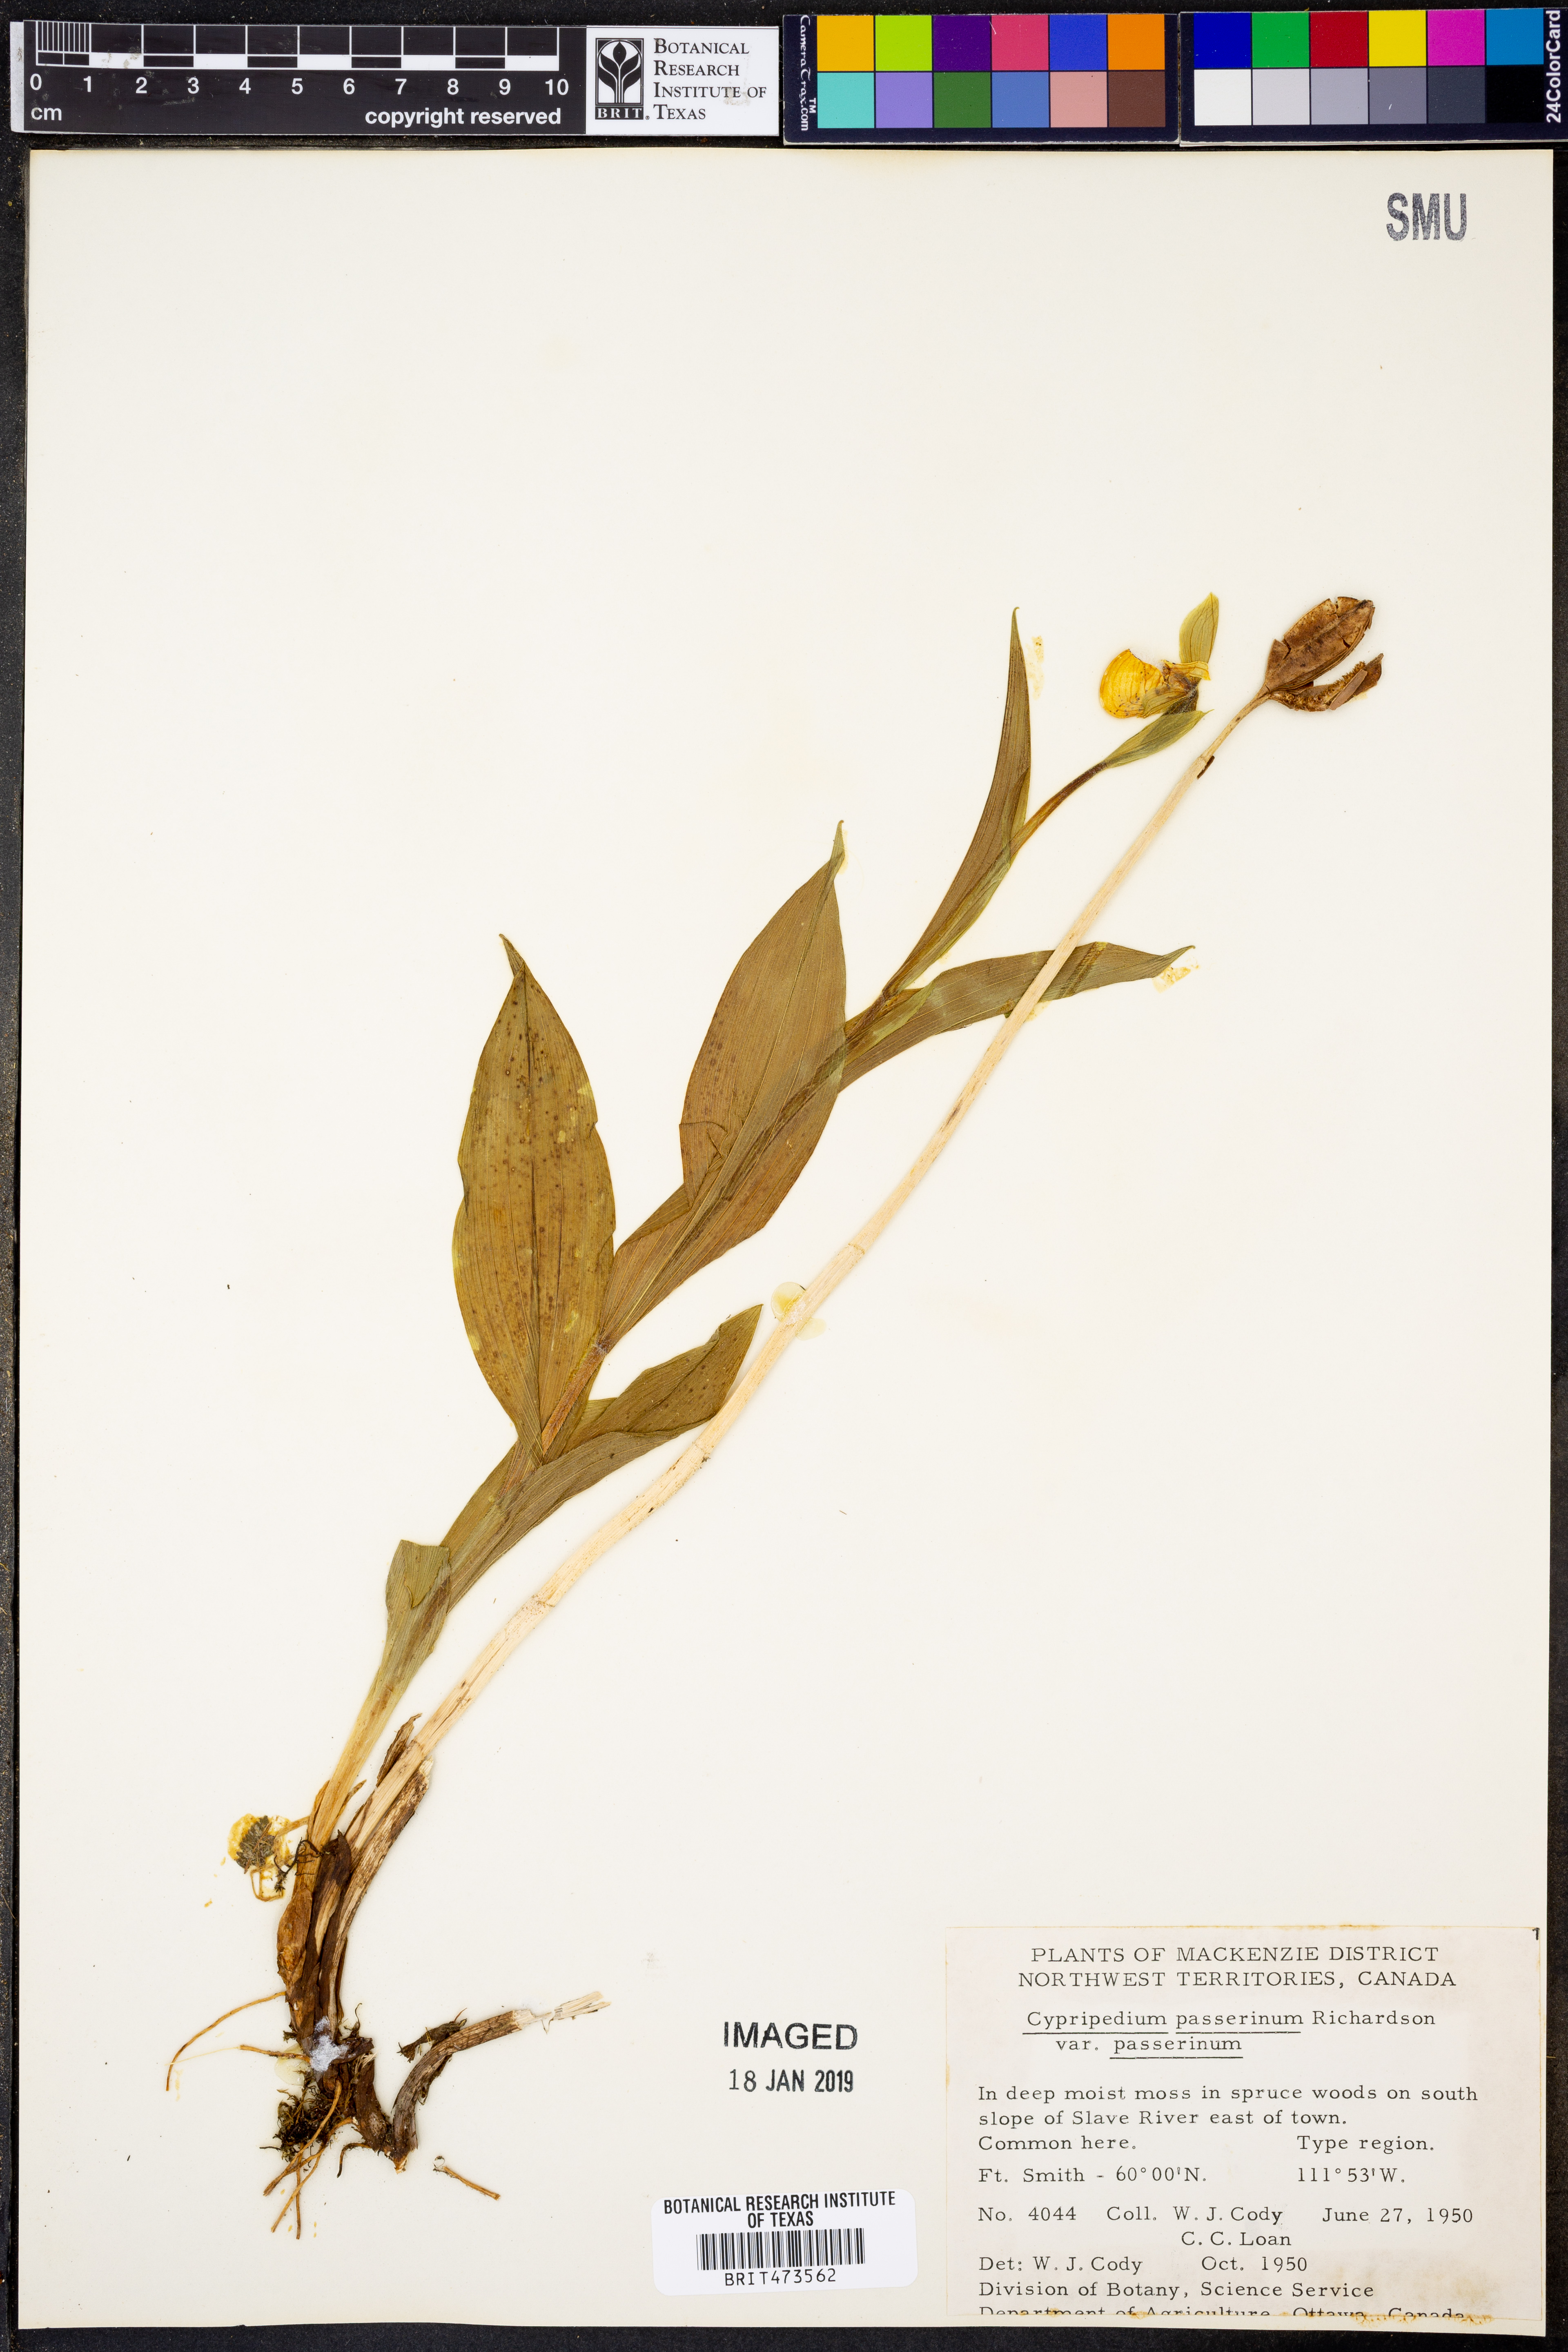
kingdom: Plantae
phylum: Tracheophyta
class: Liliopsida
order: Asparagales
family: Orchidaceae
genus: Cypripedium
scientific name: Cypripedium passerinum
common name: Sparrow's-egg lady's-slipper
